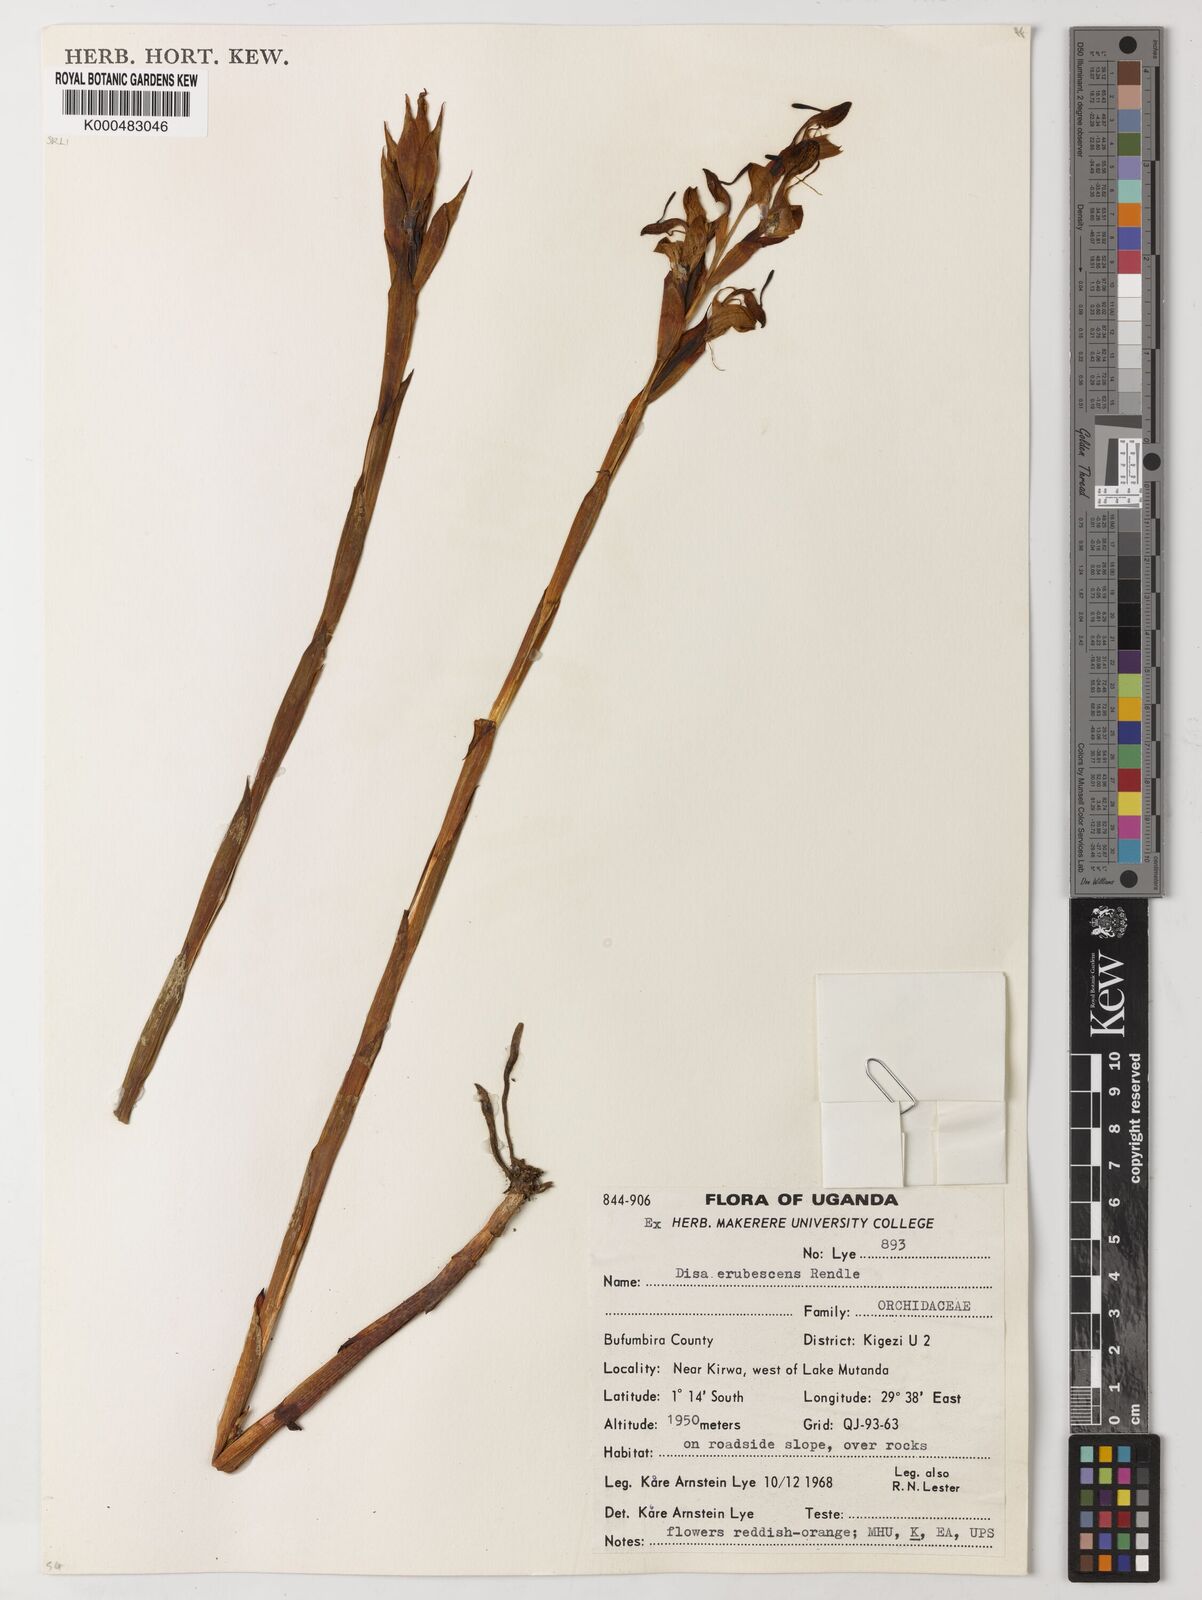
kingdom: Plantae
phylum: Tracheophyta
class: Liliopsida
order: Asparagales
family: Orchidaceae
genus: Disa
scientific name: Disa erubescens
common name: The rose disa
